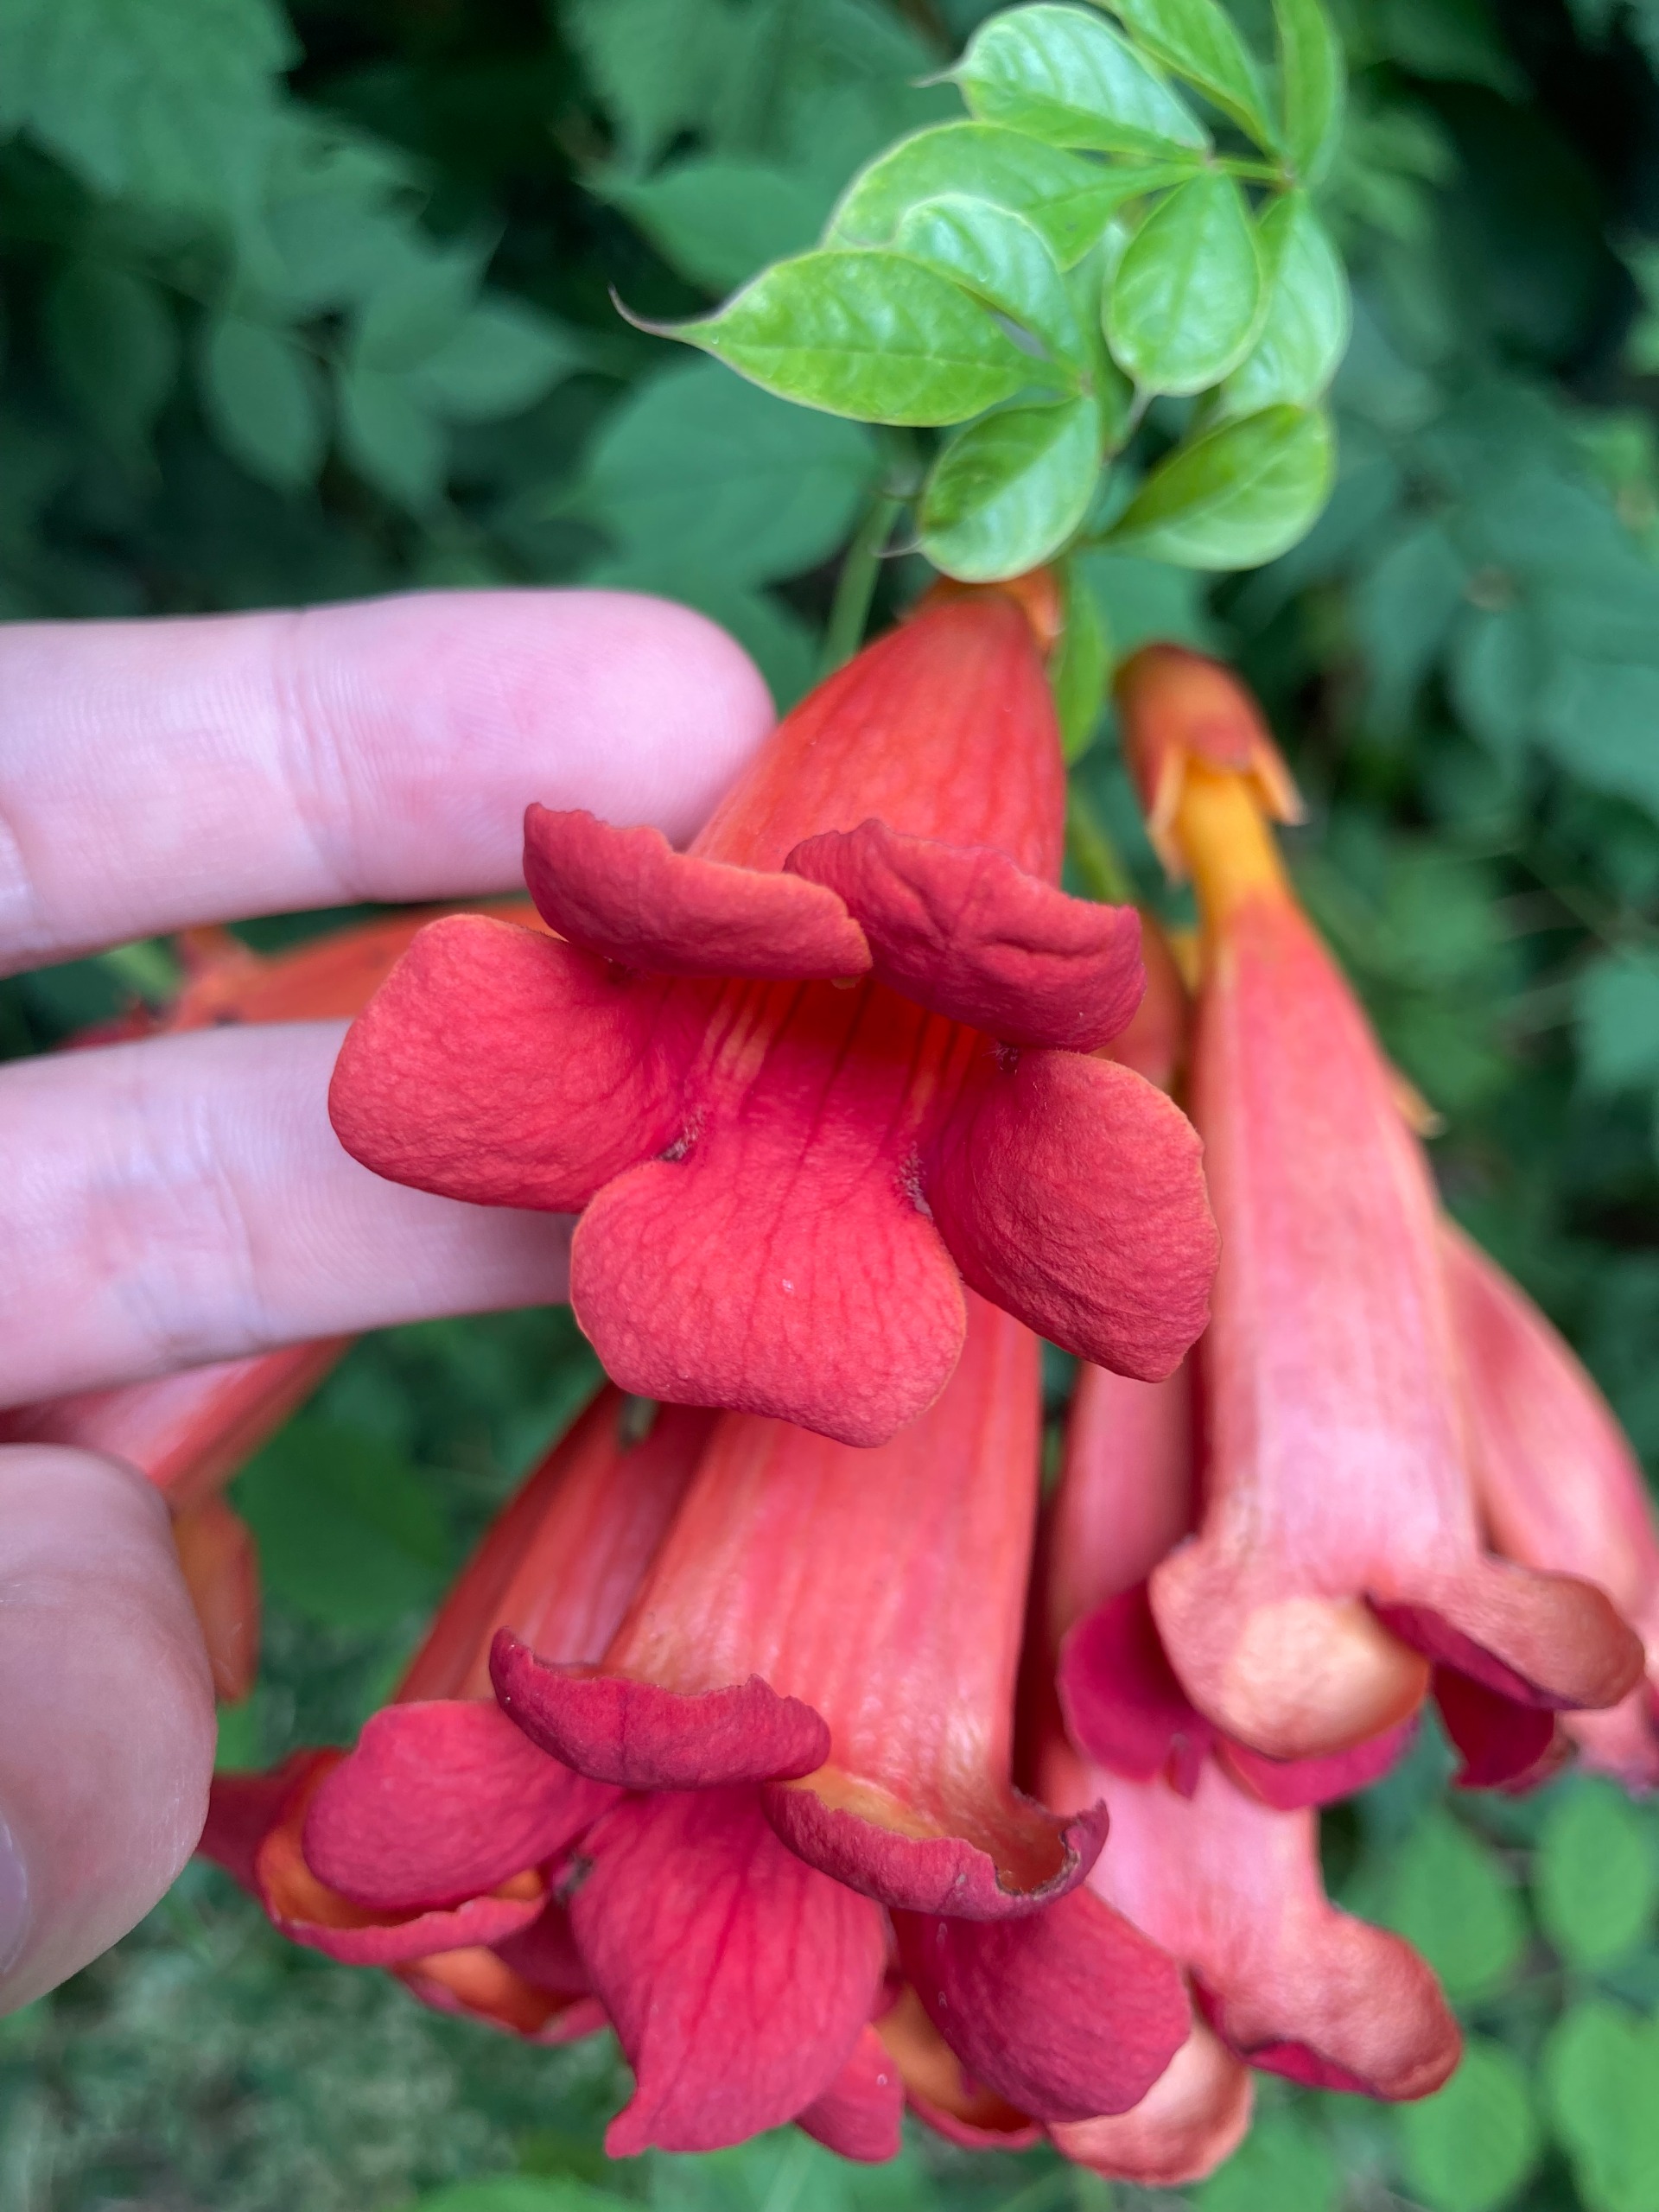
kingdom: Plantae
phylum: Tracheophyta
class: Magnoliopsida
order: Lamiales
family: Bignoniaceae
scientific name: Bignoniaceae
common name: Trompettræfamilien
